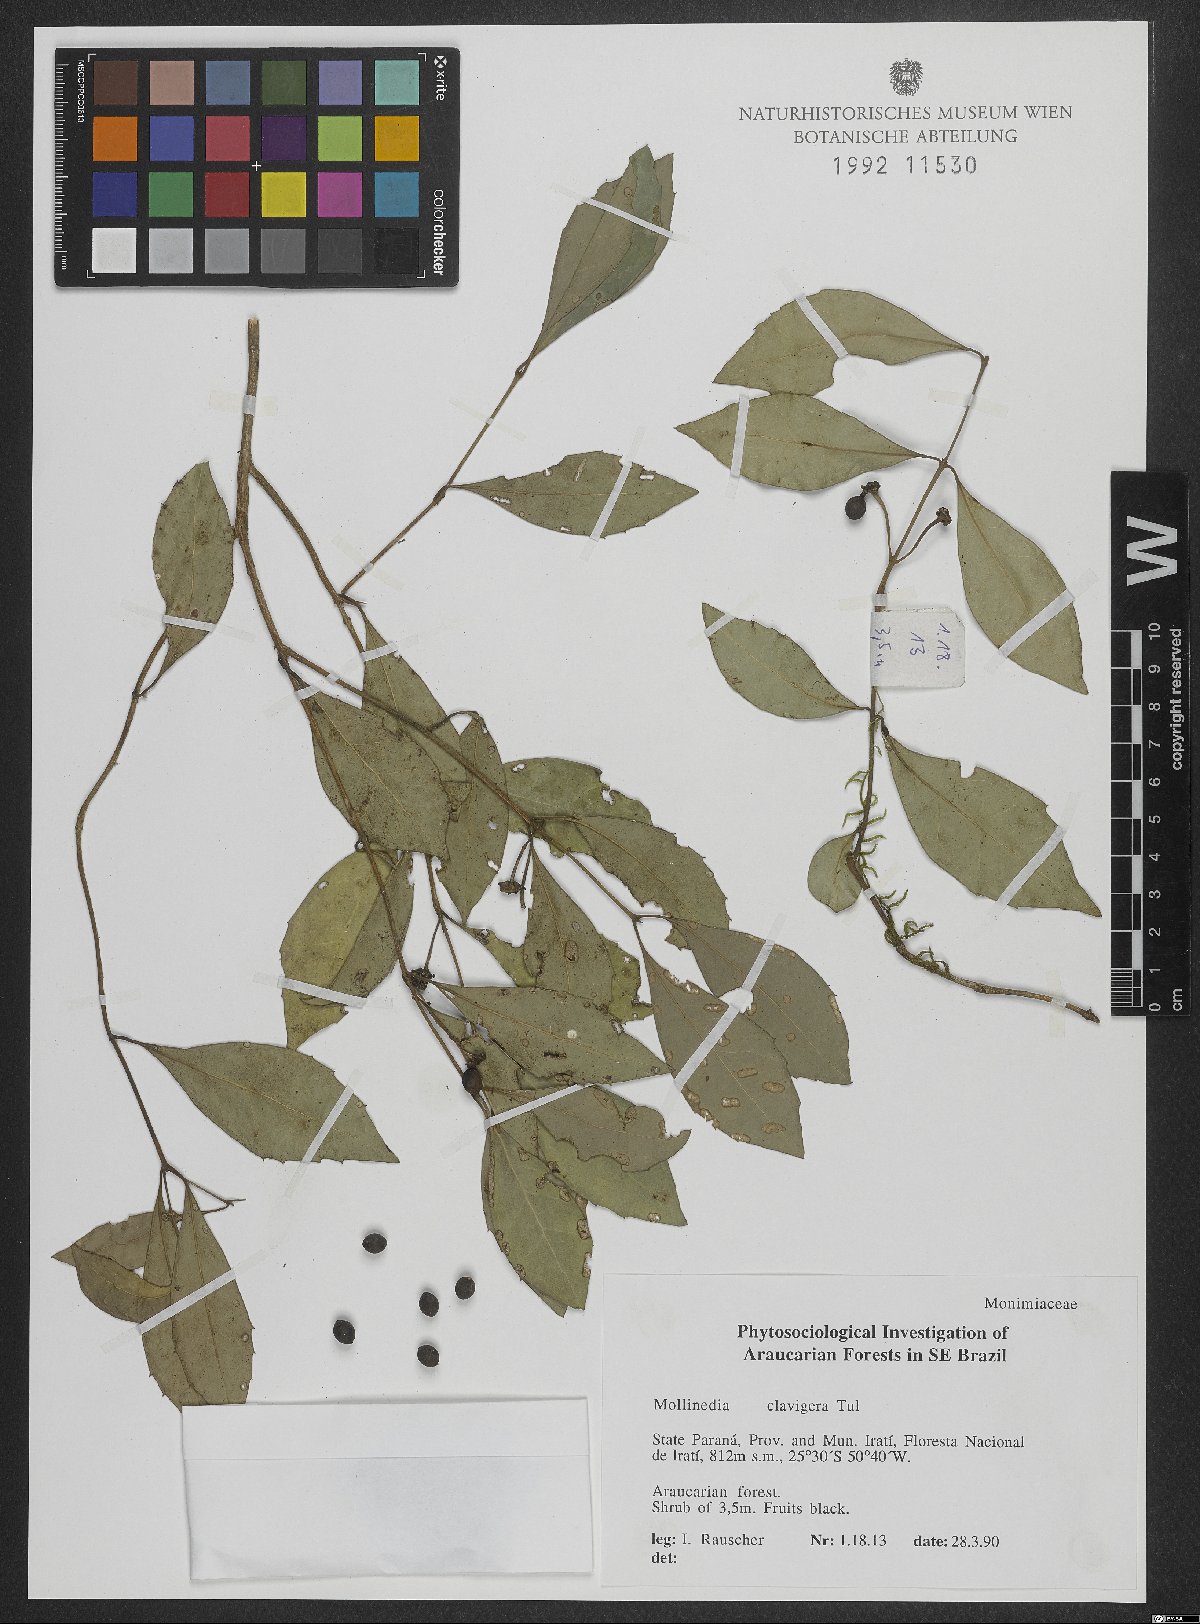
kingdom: Plantae
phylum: Tracheophyta
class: Magnoliopsida
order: Laurales
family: Monimiaceae
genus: Mollinedia
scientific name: Mollinedia clavigera
